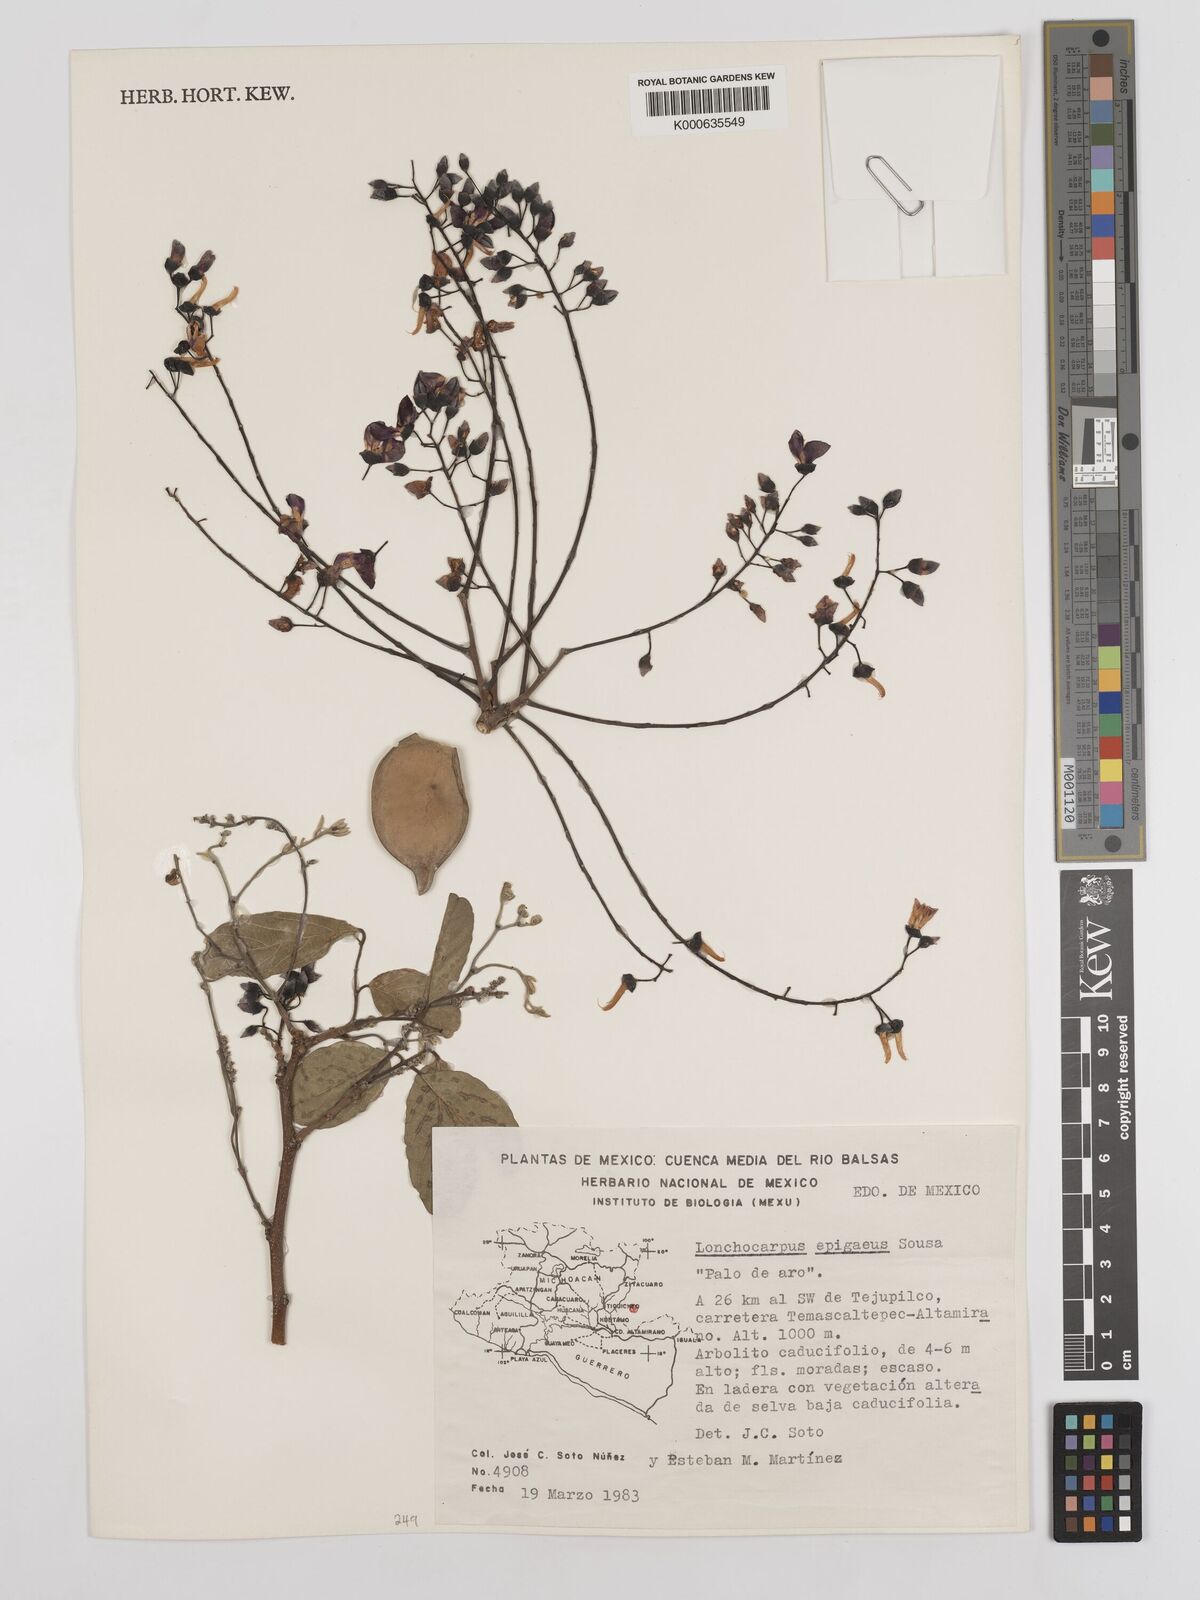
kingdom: Plantae
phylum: Tracheophyta
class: Magnoliopsida
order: Fabales
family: Fabaceae
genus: Lonchocarpus
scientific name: Lonchocarpus epigaeus
